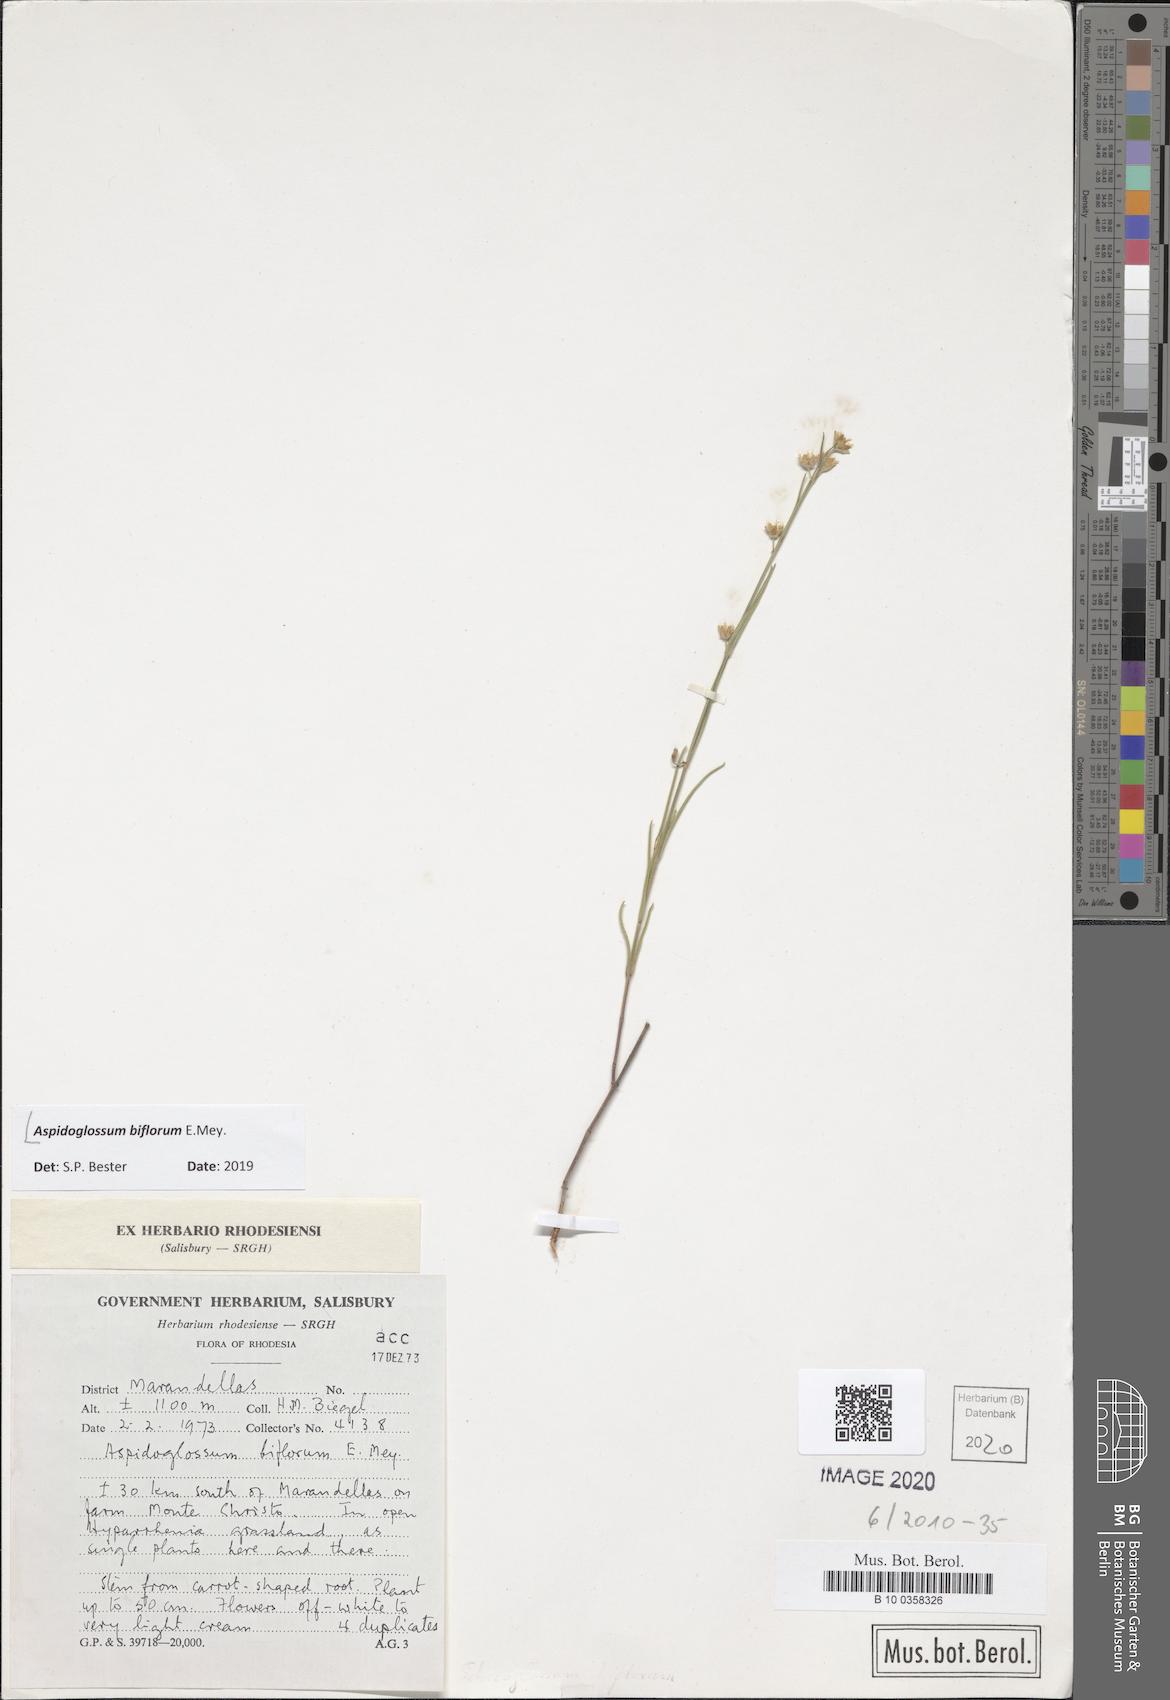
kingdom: Plantae
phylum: Tracheophyta
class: Magnoliopsida
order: Gentianales
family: Apocynaceae
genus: Aspidoglossum
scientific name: Aspidoglossum biflorum
